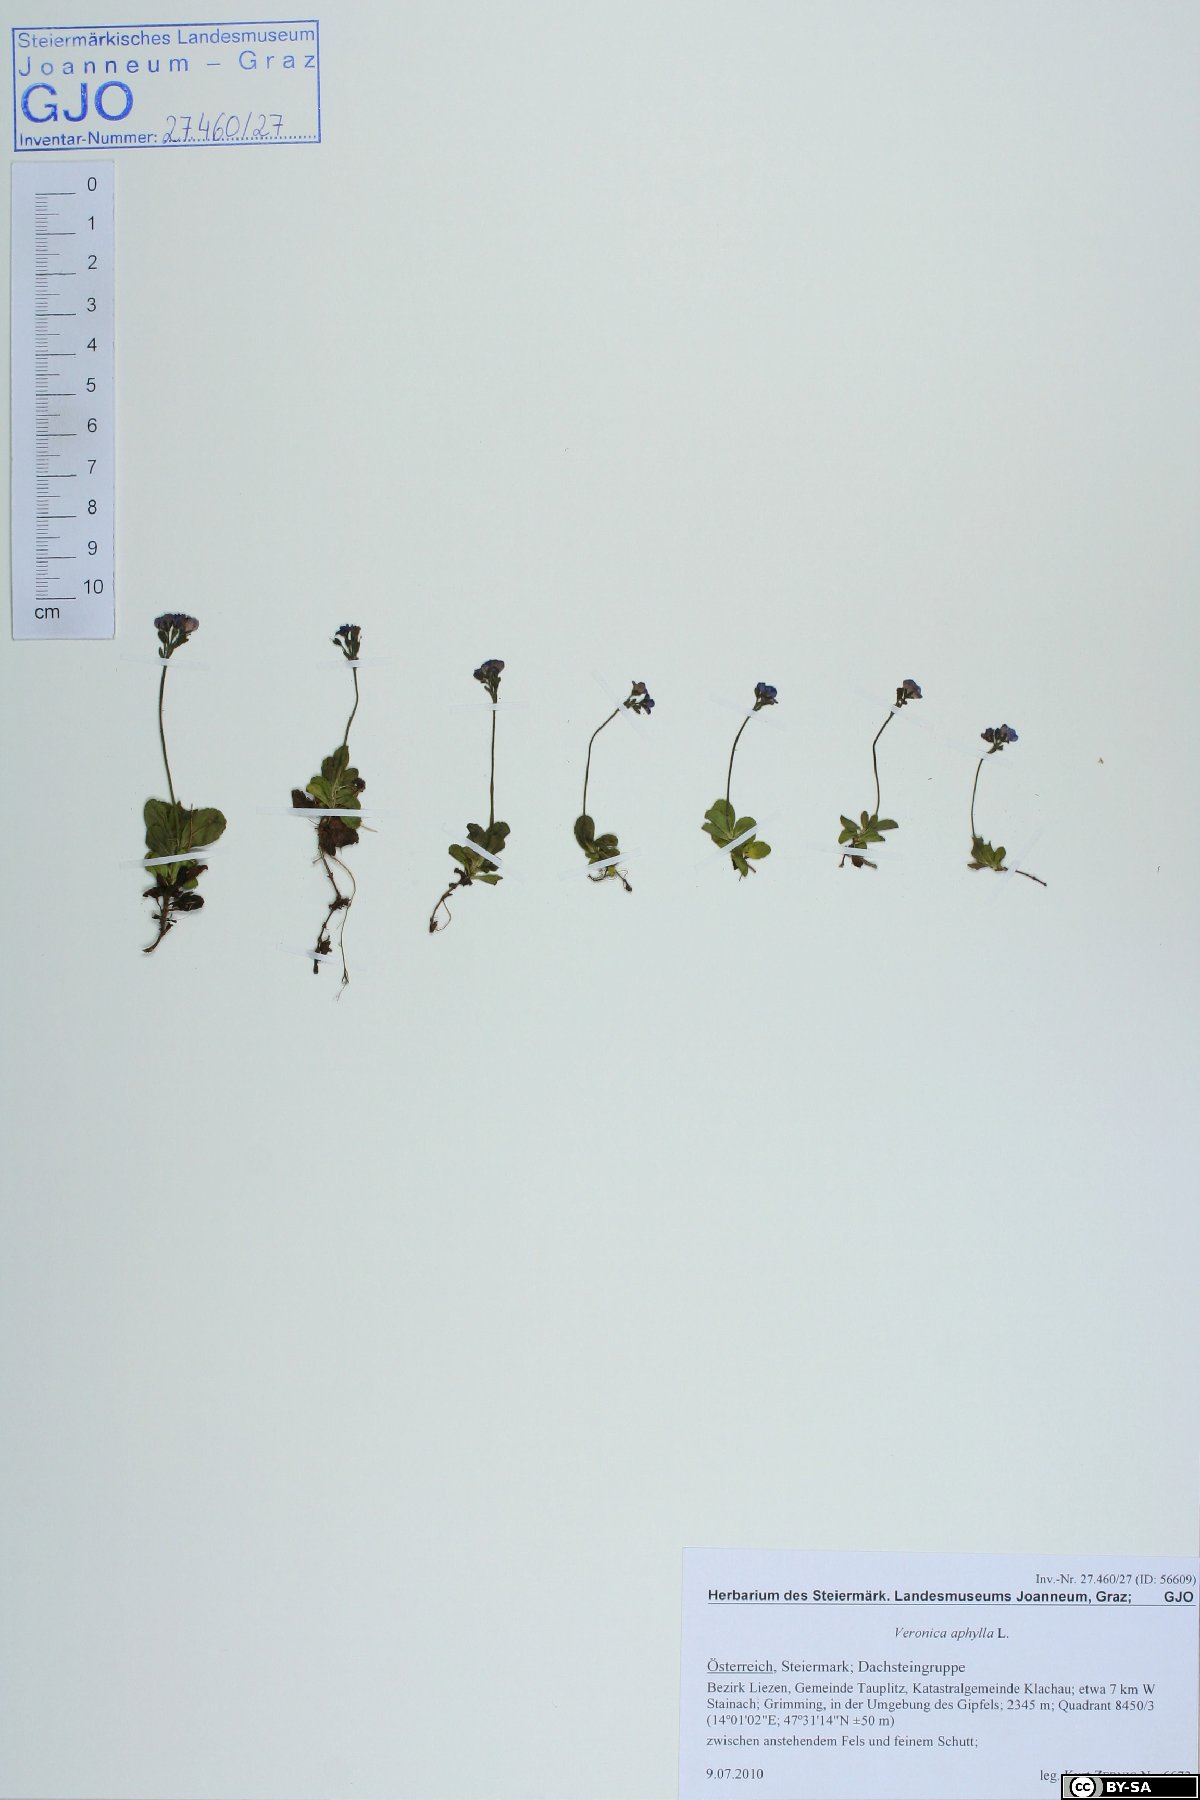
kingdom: Plantae
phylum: Tracheophyta
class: Magnoliopsida
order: Lamiales
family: Plantaginaceae
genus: Veronica
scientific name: Veronica aphylla
